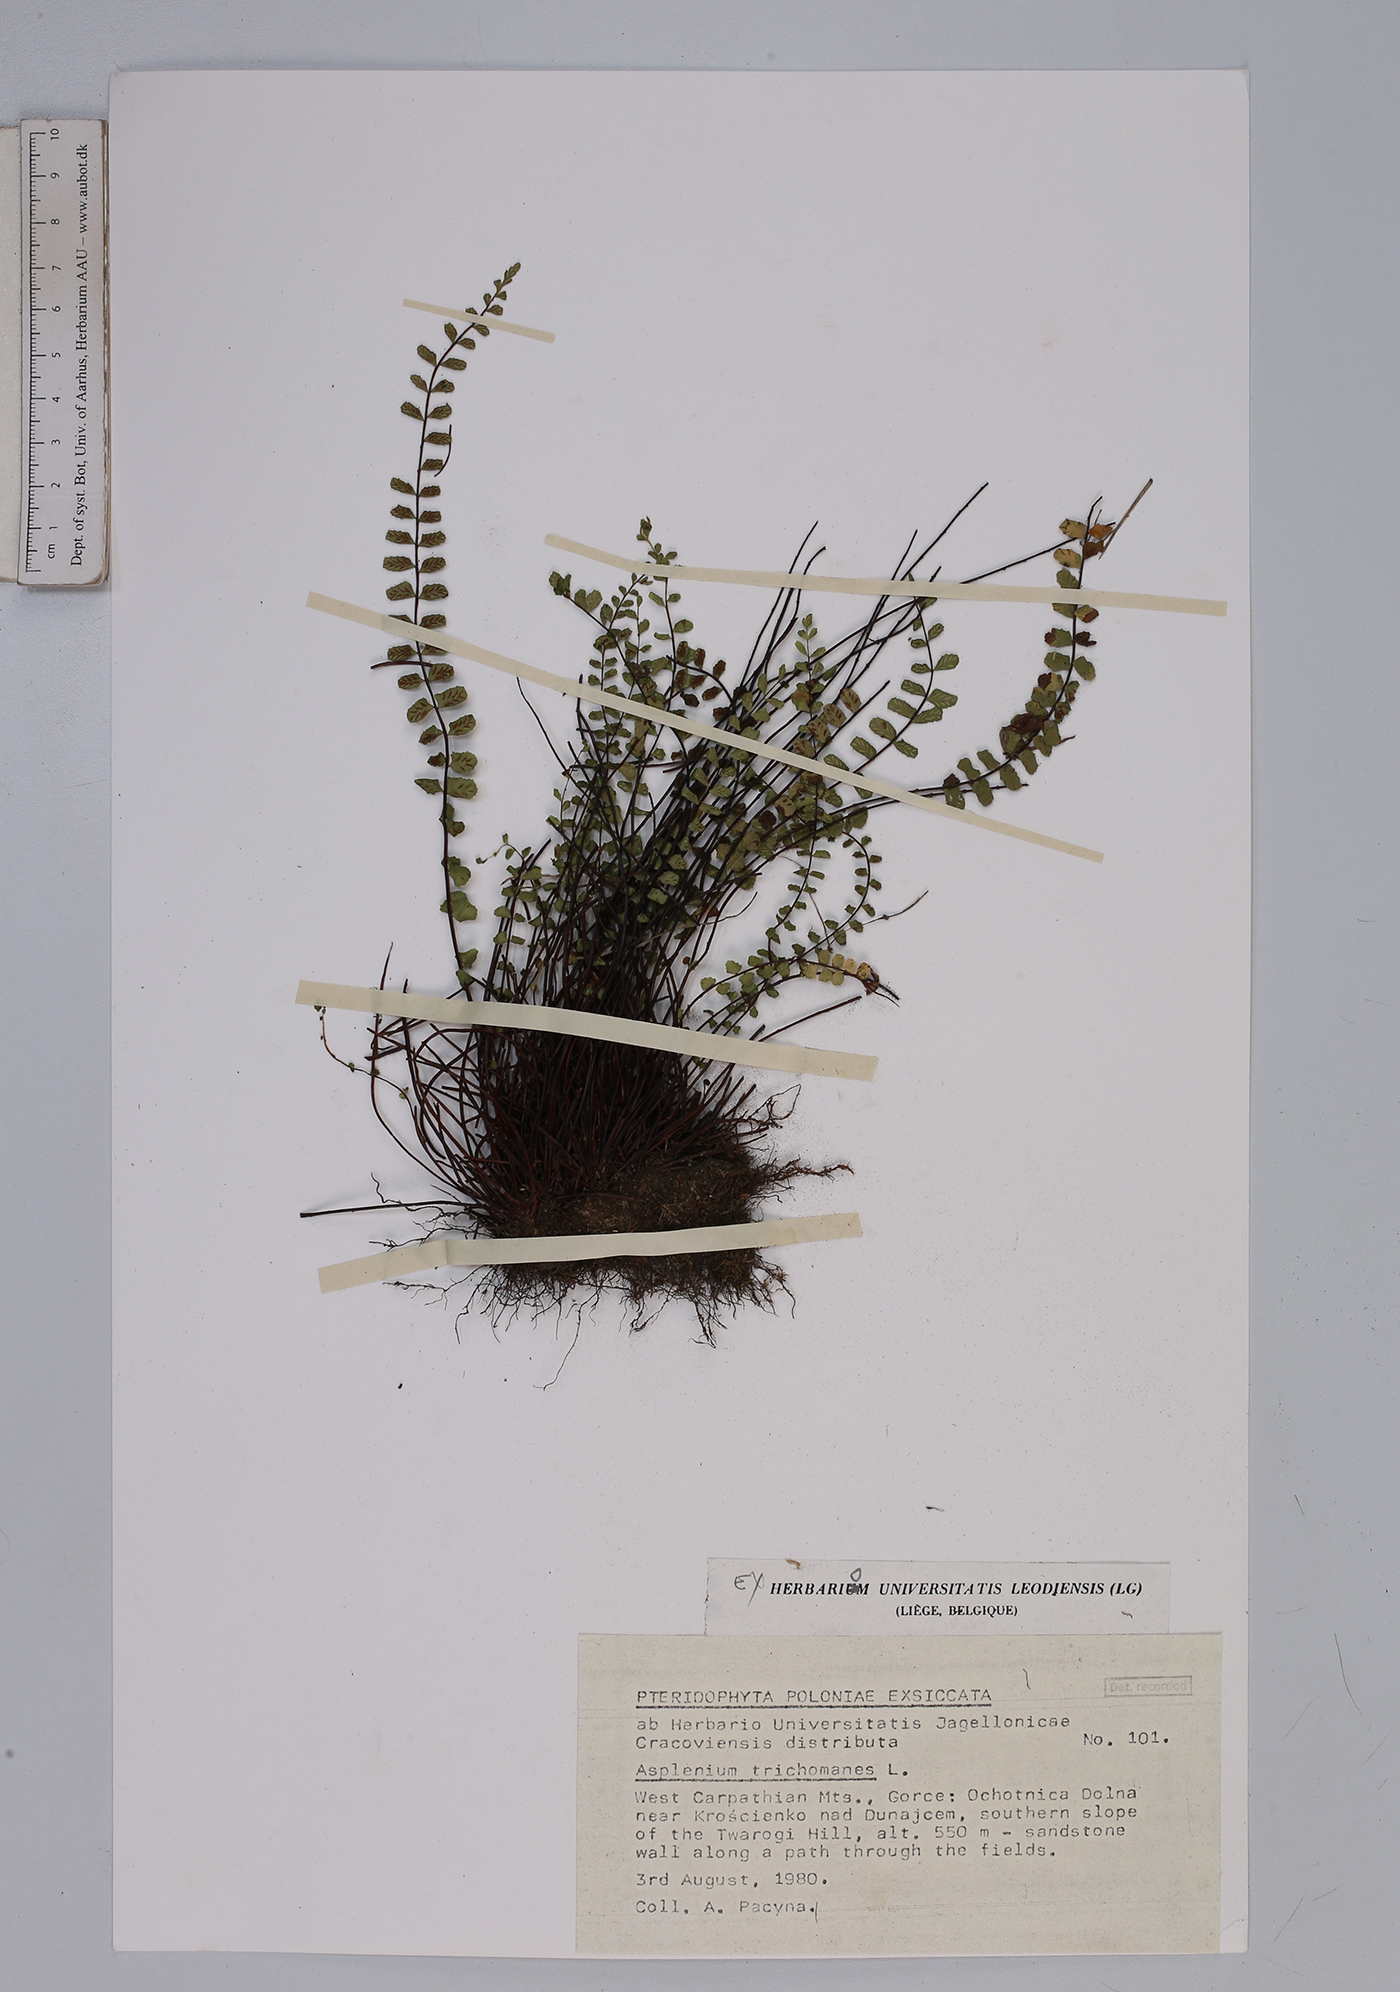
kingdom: Plantae
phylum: Tracheophyta
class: Polypodiopsida
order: Polypodiales
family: Aspleniaceae
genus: Asplenium
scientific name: Asplenium trichomanes
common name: Maidenhair spleenwort
